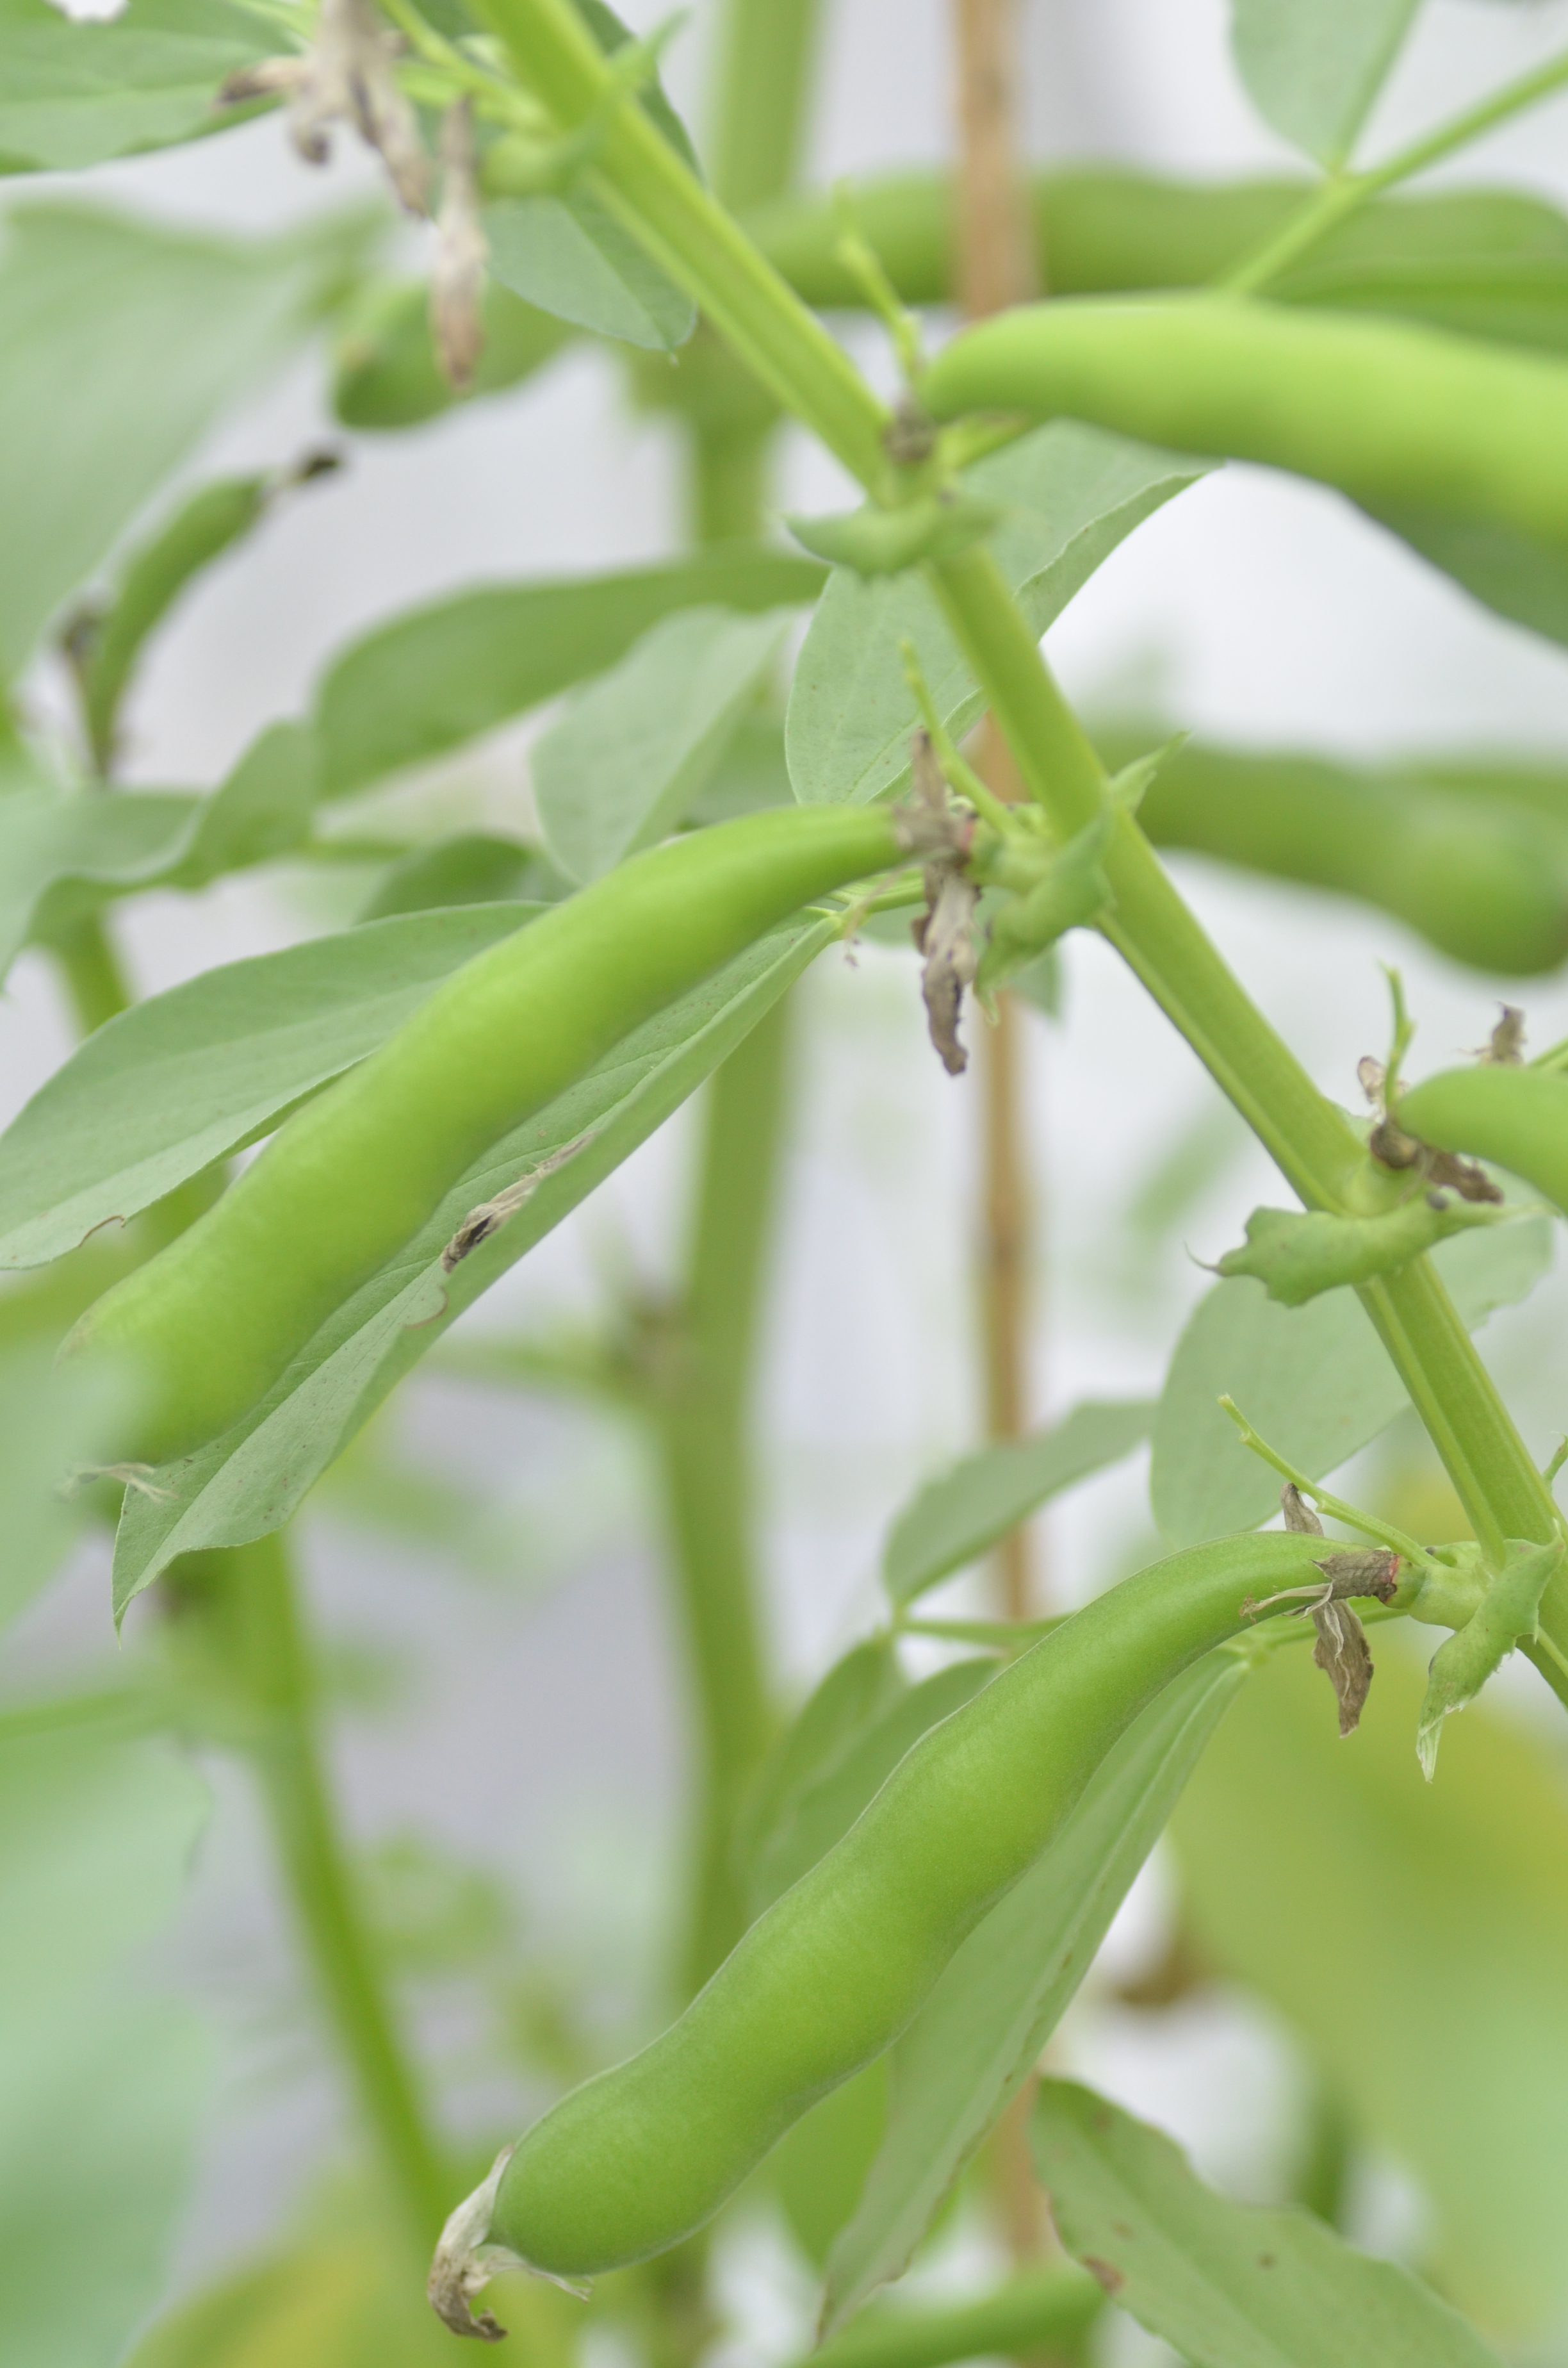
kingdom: Plantae
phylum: Tracheophyta
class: Magnoliopsida
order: Fabales
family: Fabaceae
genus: Vicia
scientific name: Vicia faba
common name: Broad bean
